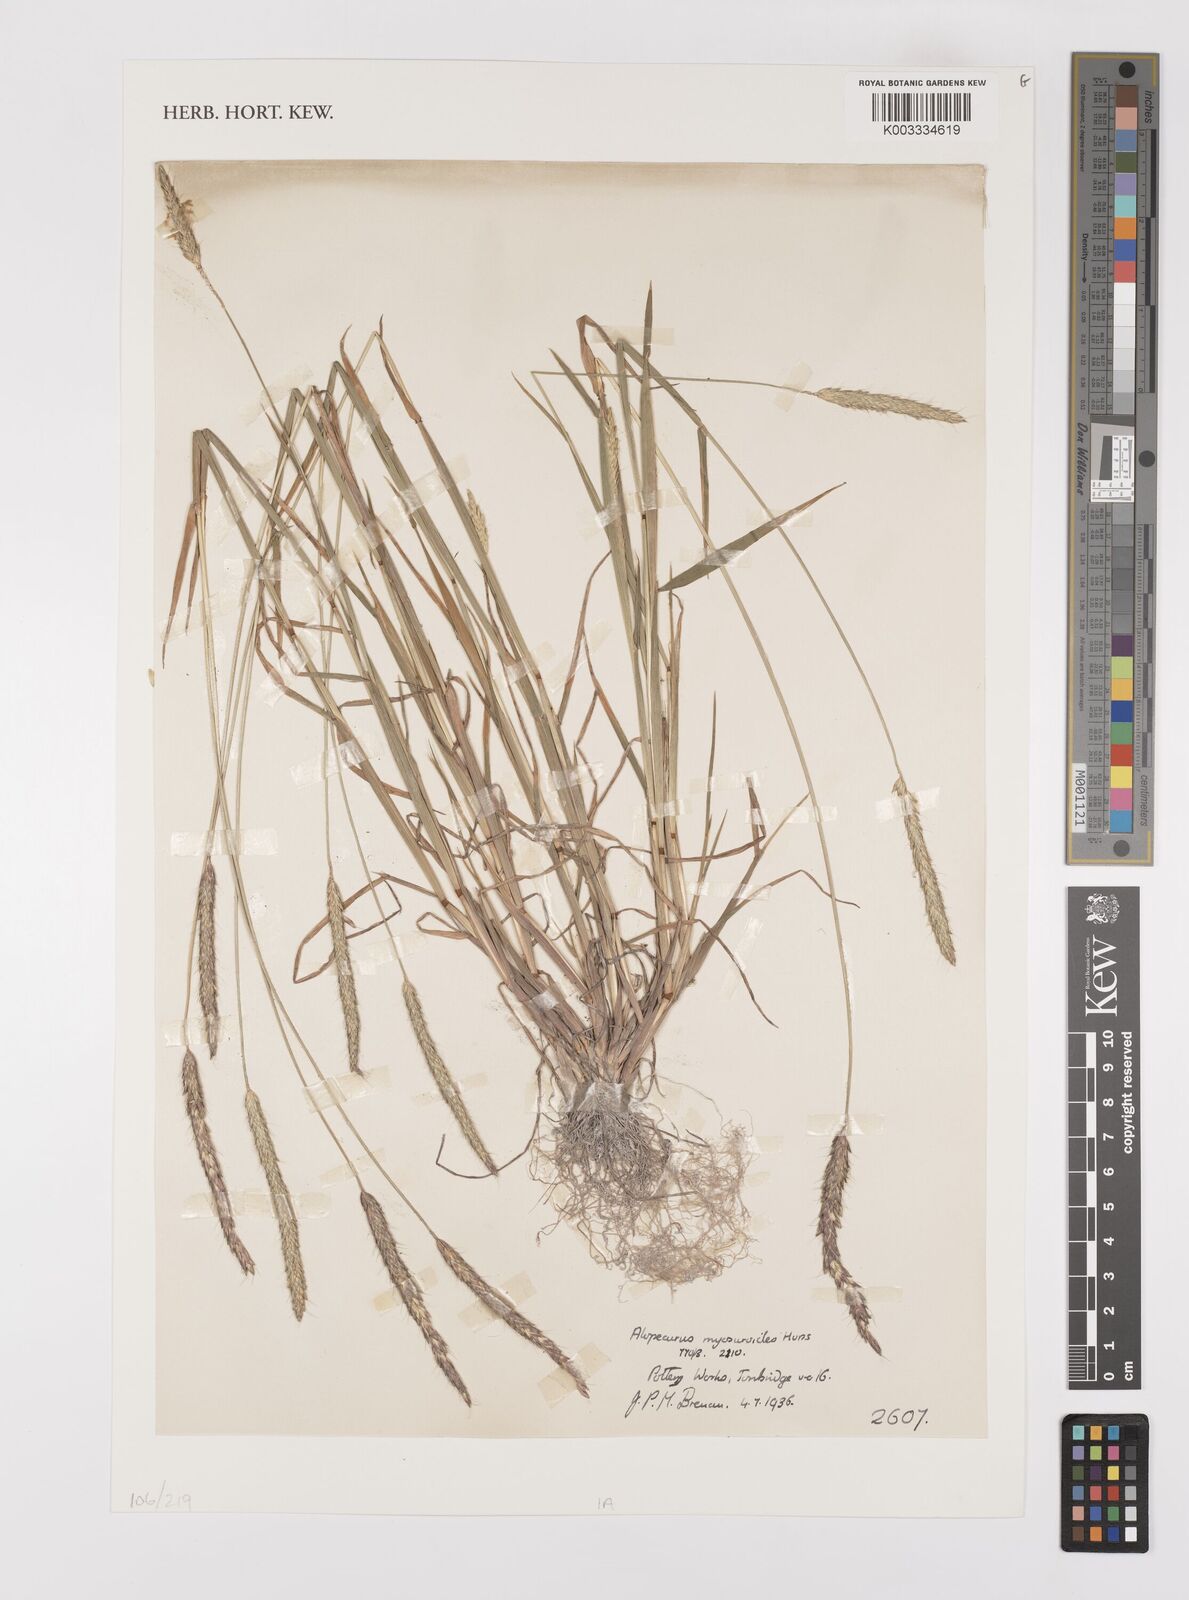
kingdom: Plantae
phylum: Tracheophyta
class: Liliopsida
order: Poales
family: Poaceae
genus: Alopecurus
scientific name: Alopecurus myosuroides
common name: Black-grass
